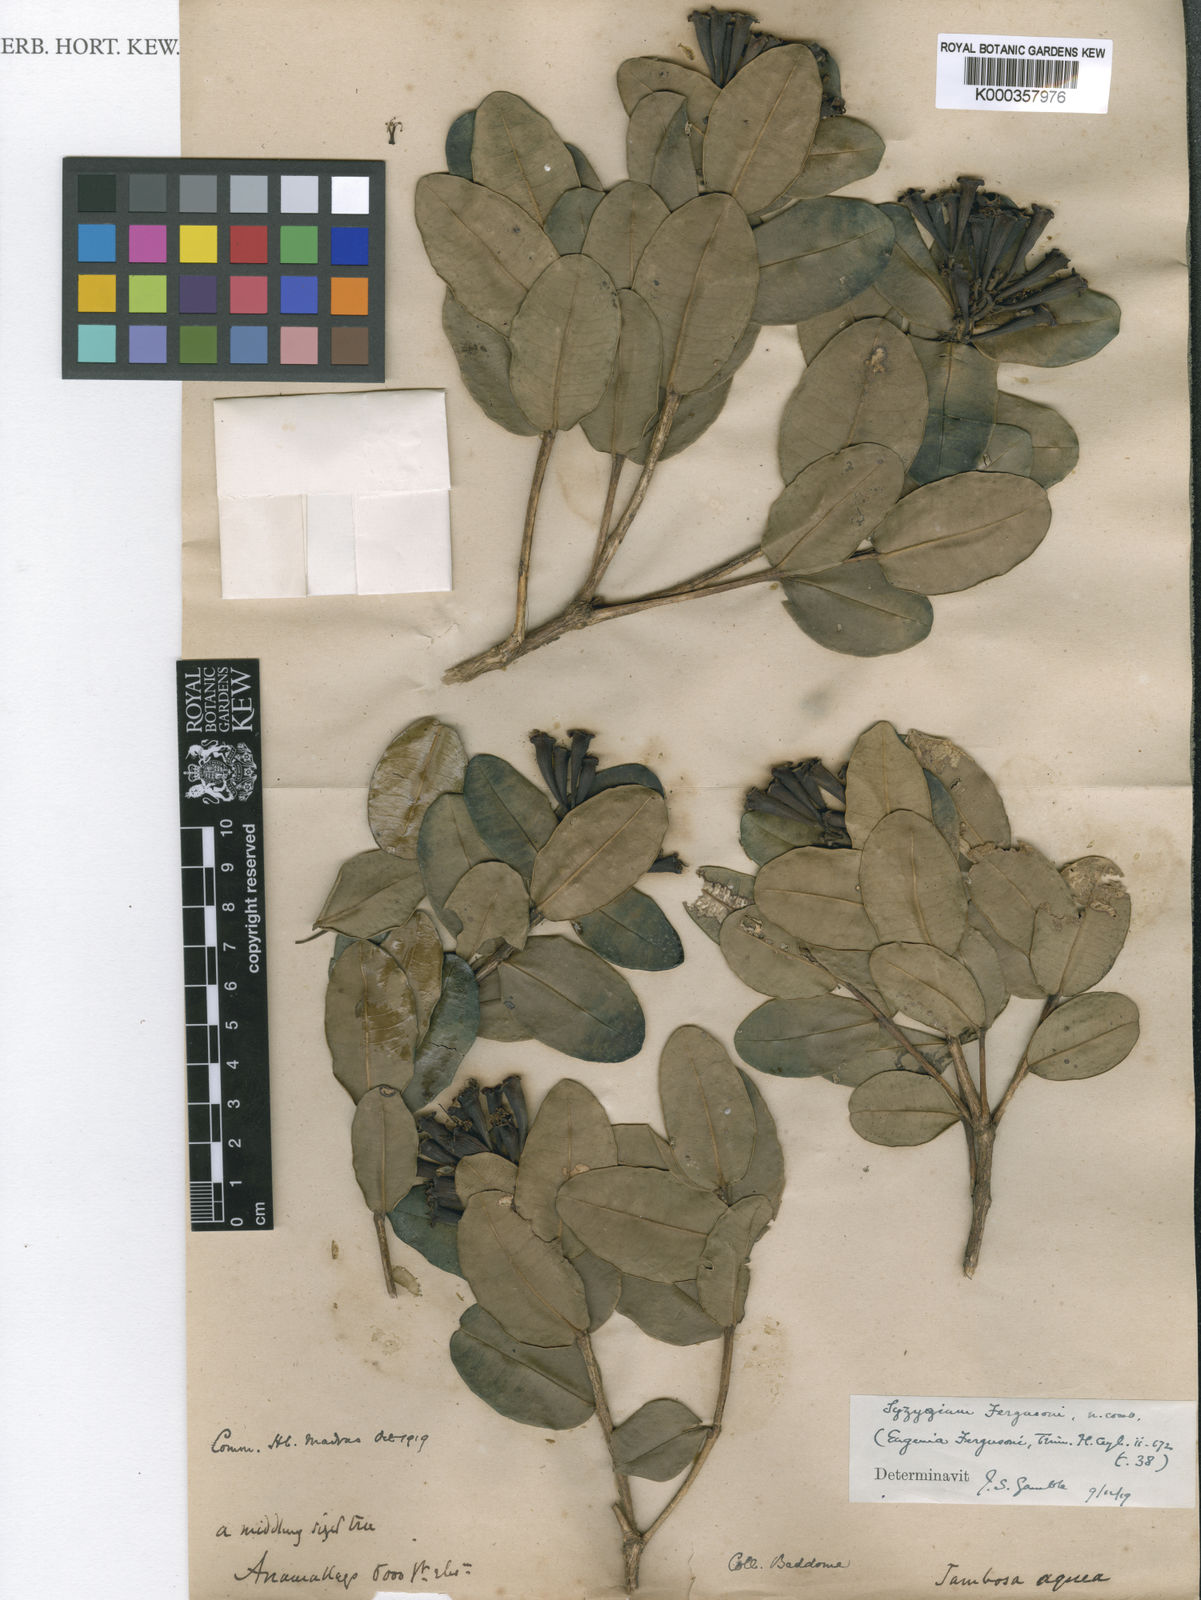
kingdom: Plantae
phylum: Tracheophyta
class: Magnoliopsida
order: Myrtales
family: Myrtaceae
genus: Syzygium
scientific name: Syzygium fergusonii
